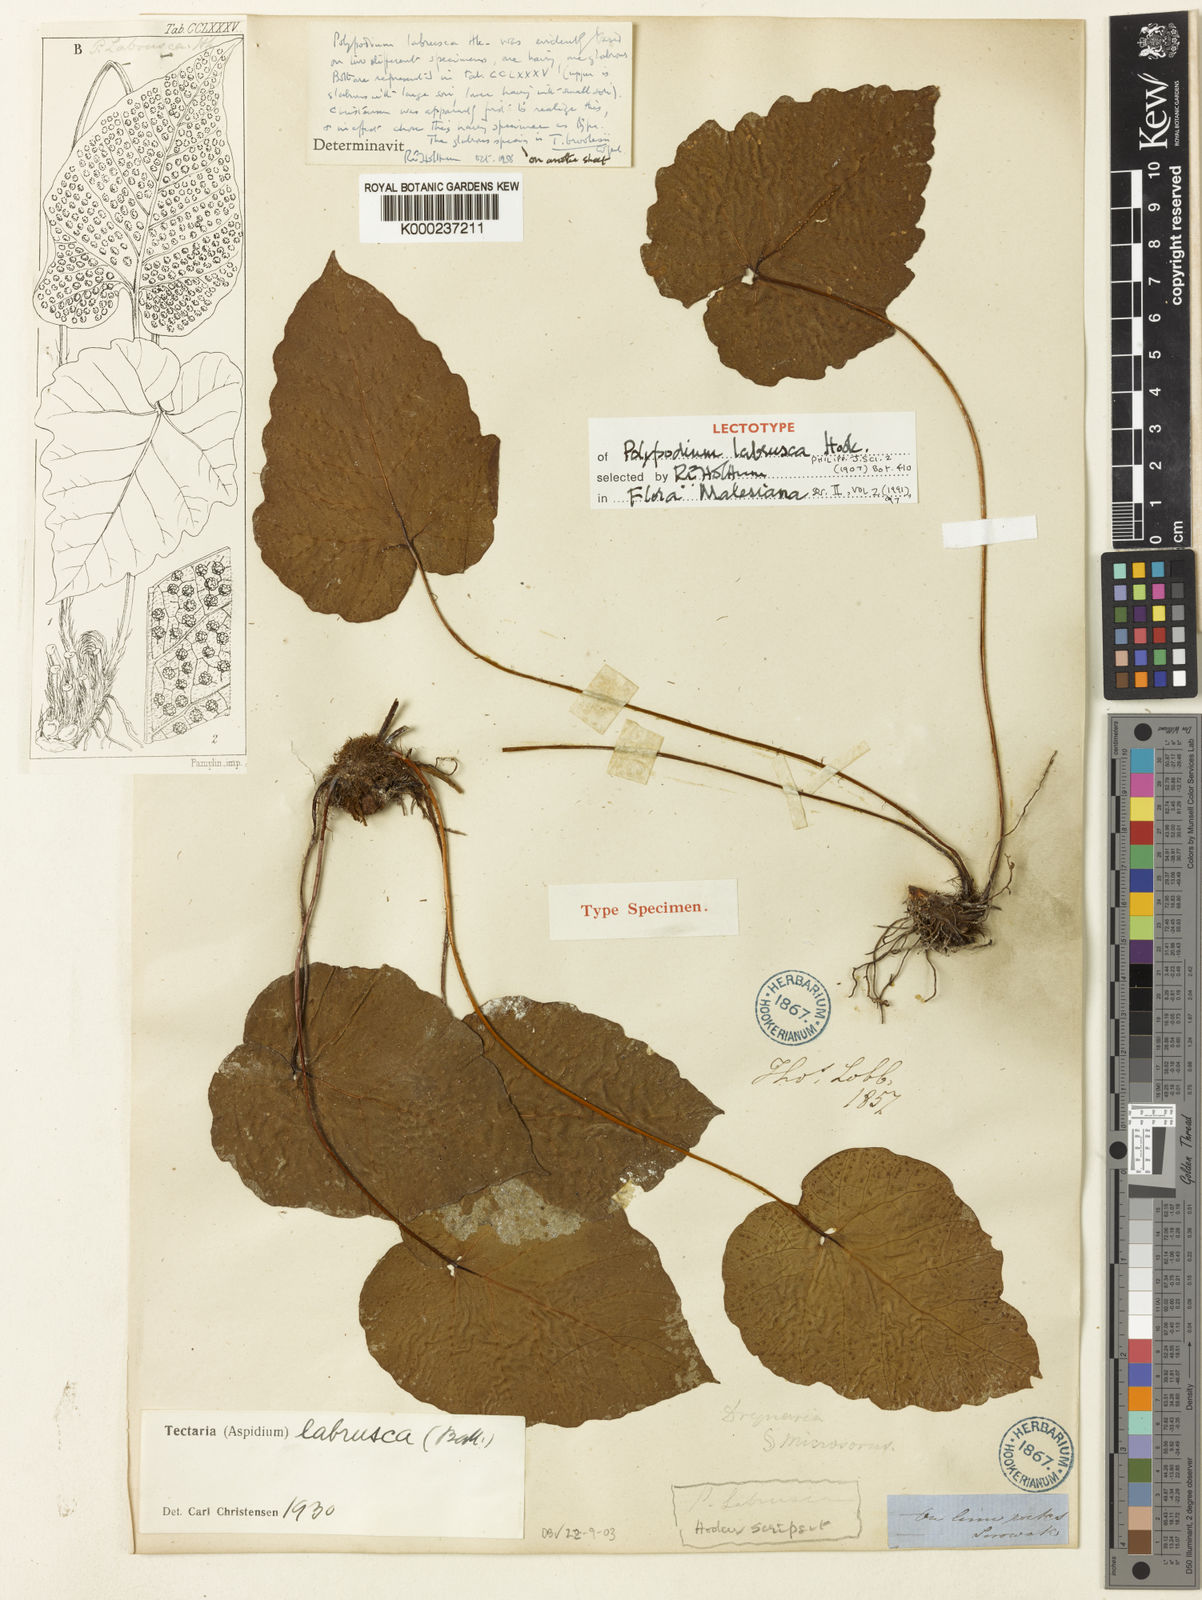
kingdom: Plantae
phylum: Tracheophyta
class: Polypodiopsida
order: Polypodiales
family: Tectariaceae
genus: Tectaria
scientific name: Tectaria labrusca
